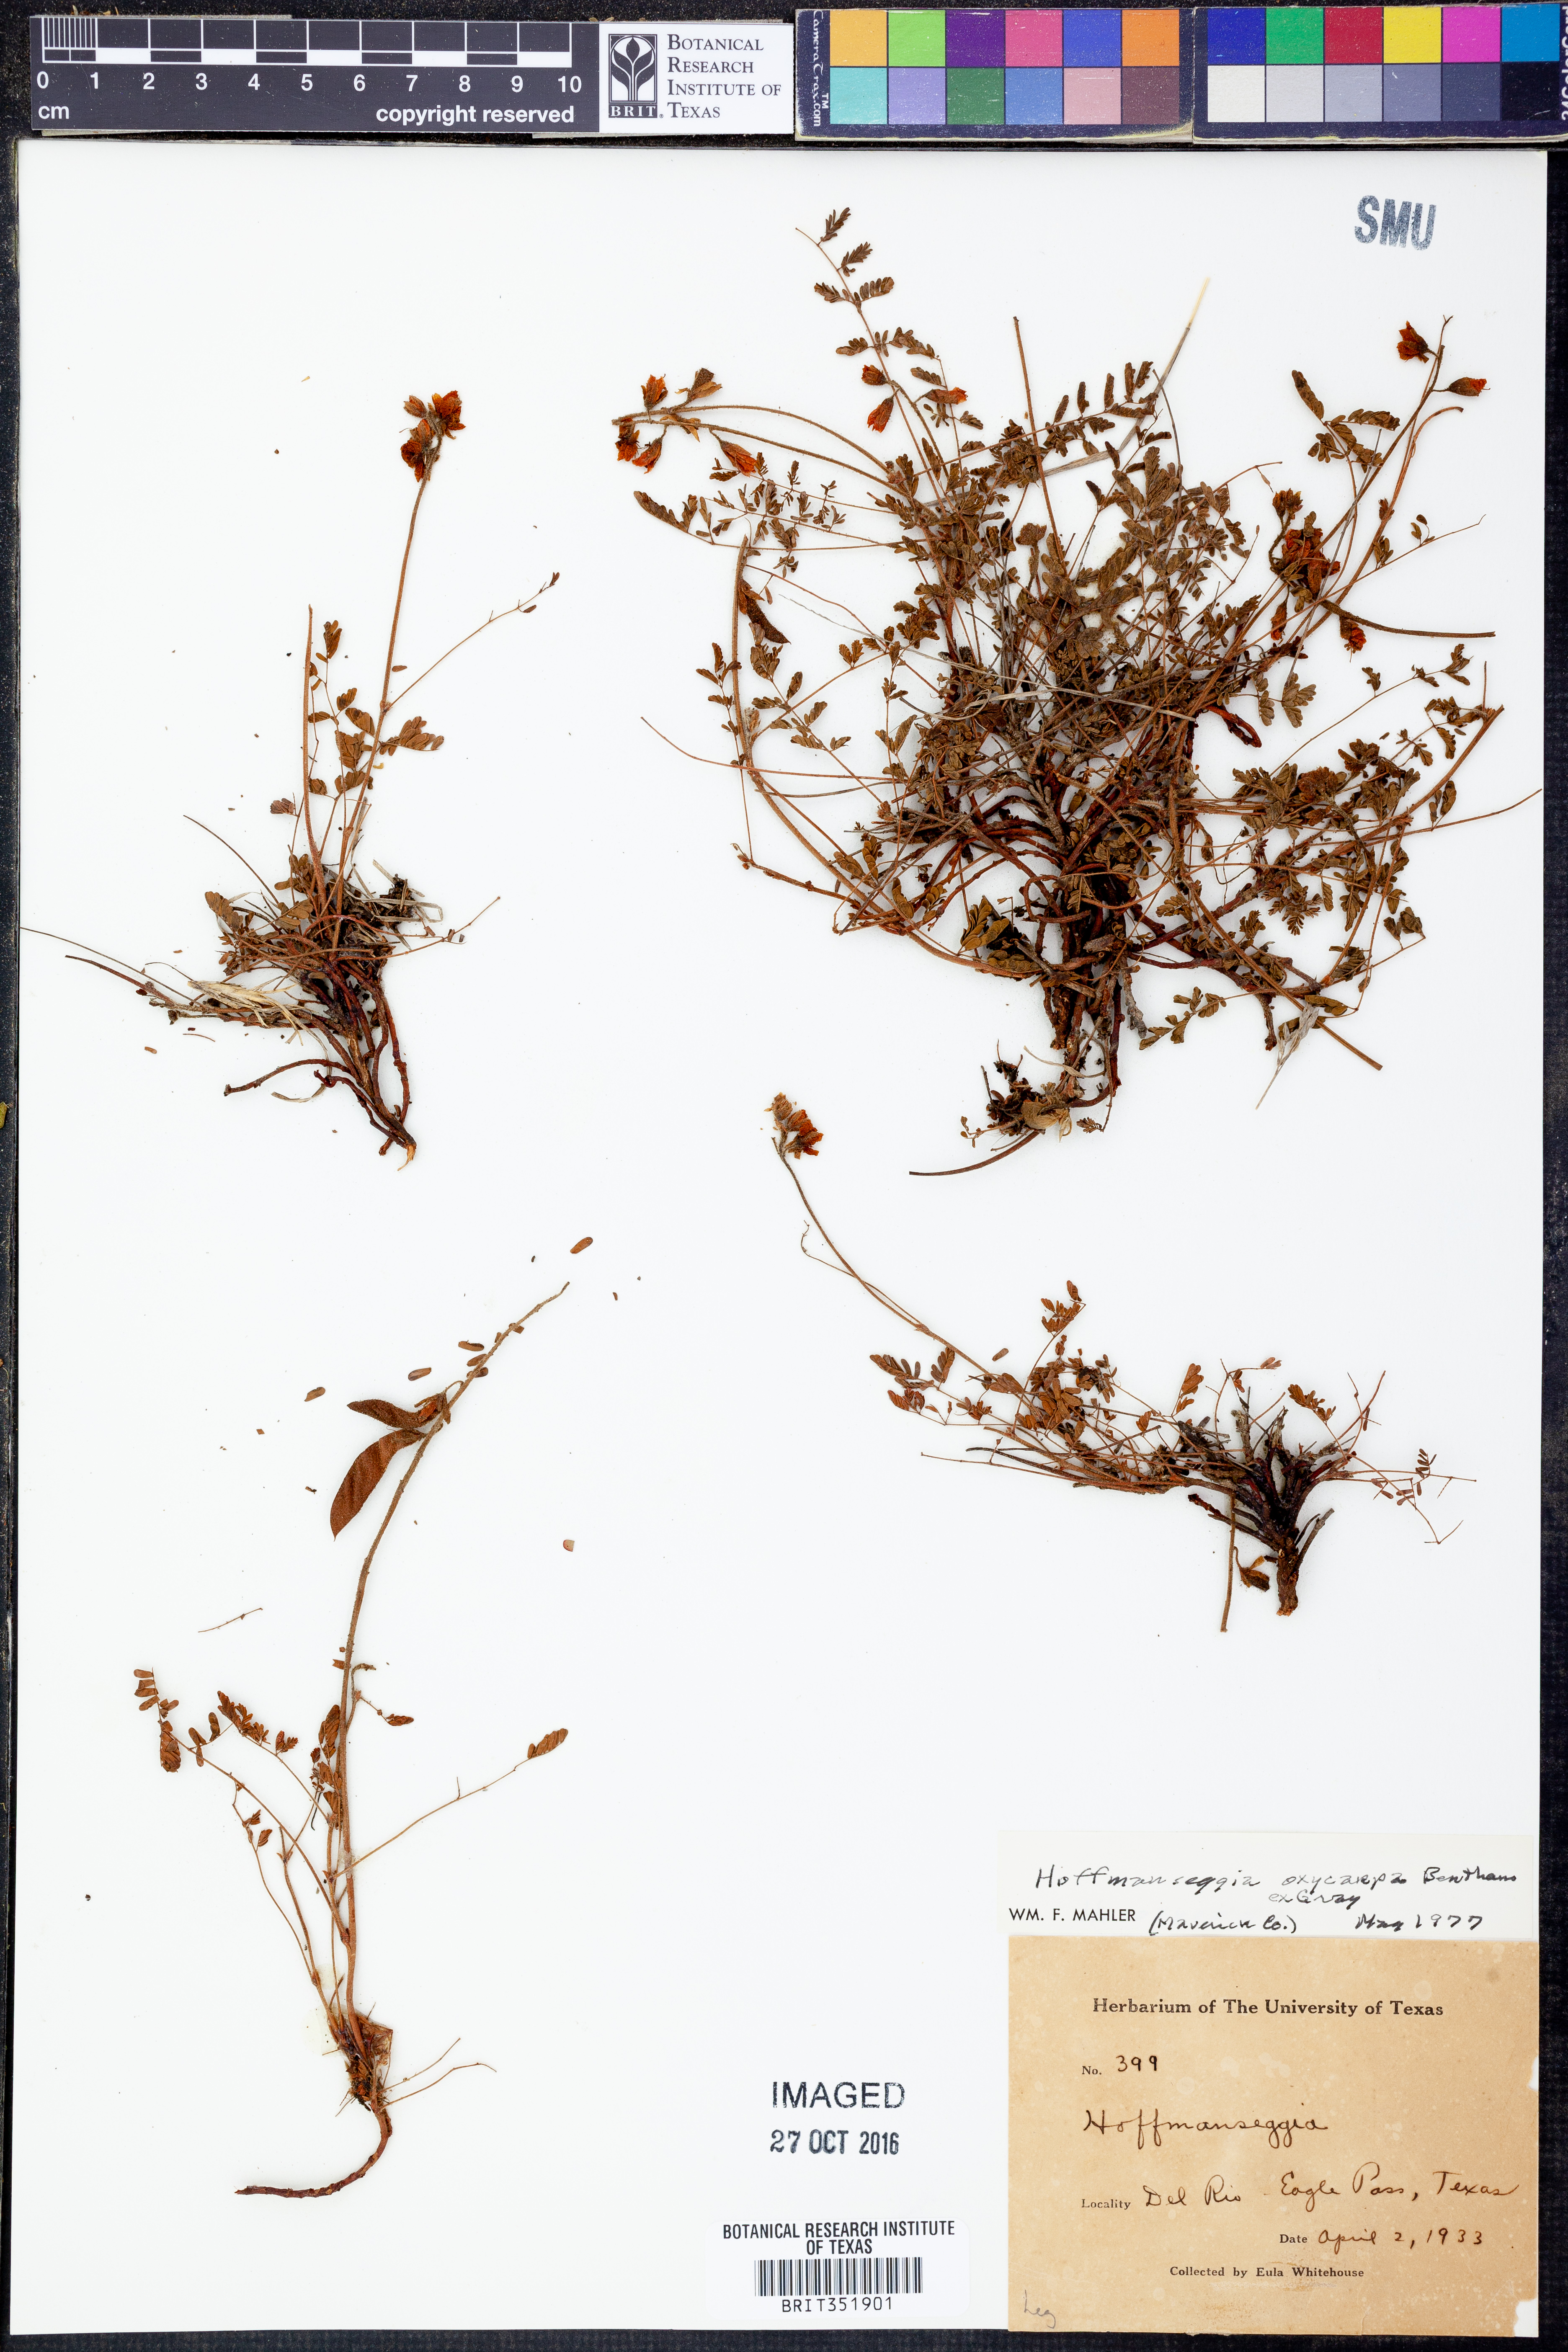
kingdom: Plantae
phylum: Tracheophyta
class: Magnoliopsida
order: Fabales
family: Fabaceae
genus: Hoffmannseggia
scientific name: Hoffmannseggia oxycarpa
